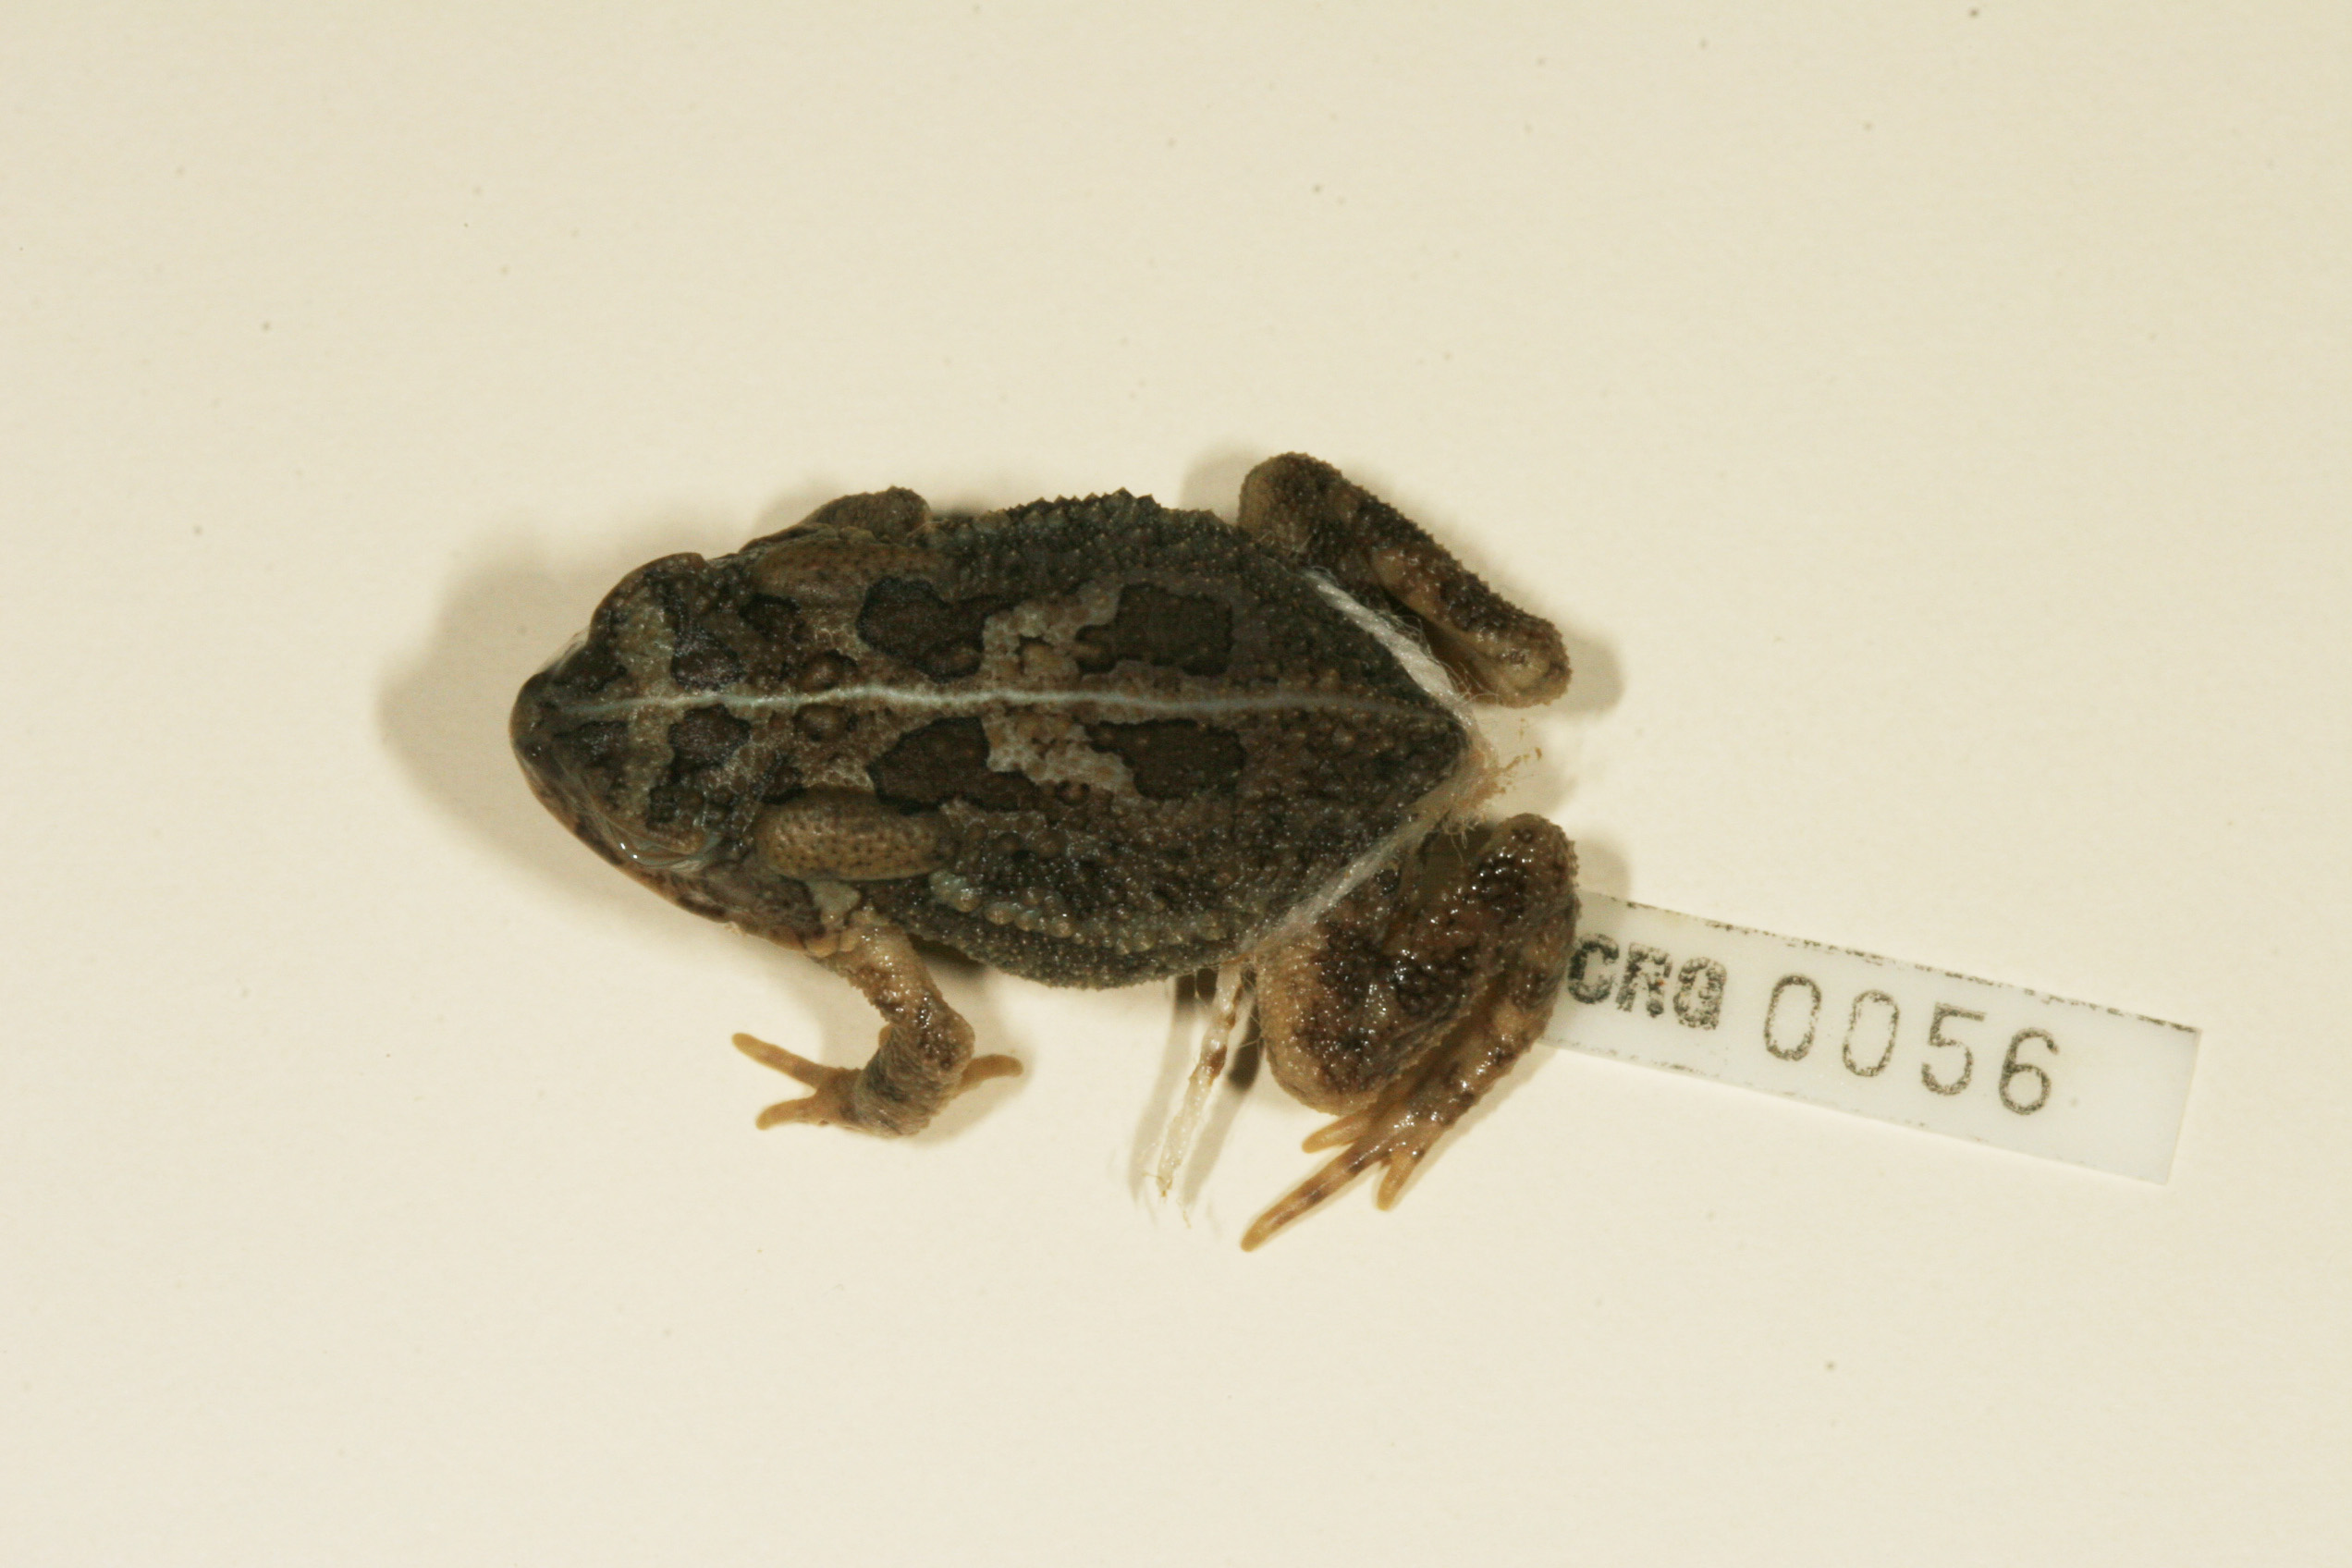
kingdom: Animalia
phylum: Chordata
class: Amphibia
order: Anura
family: Bufonidae
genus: Sclerophrys
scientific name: Sclerophrys gutturalis
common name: African common toad
